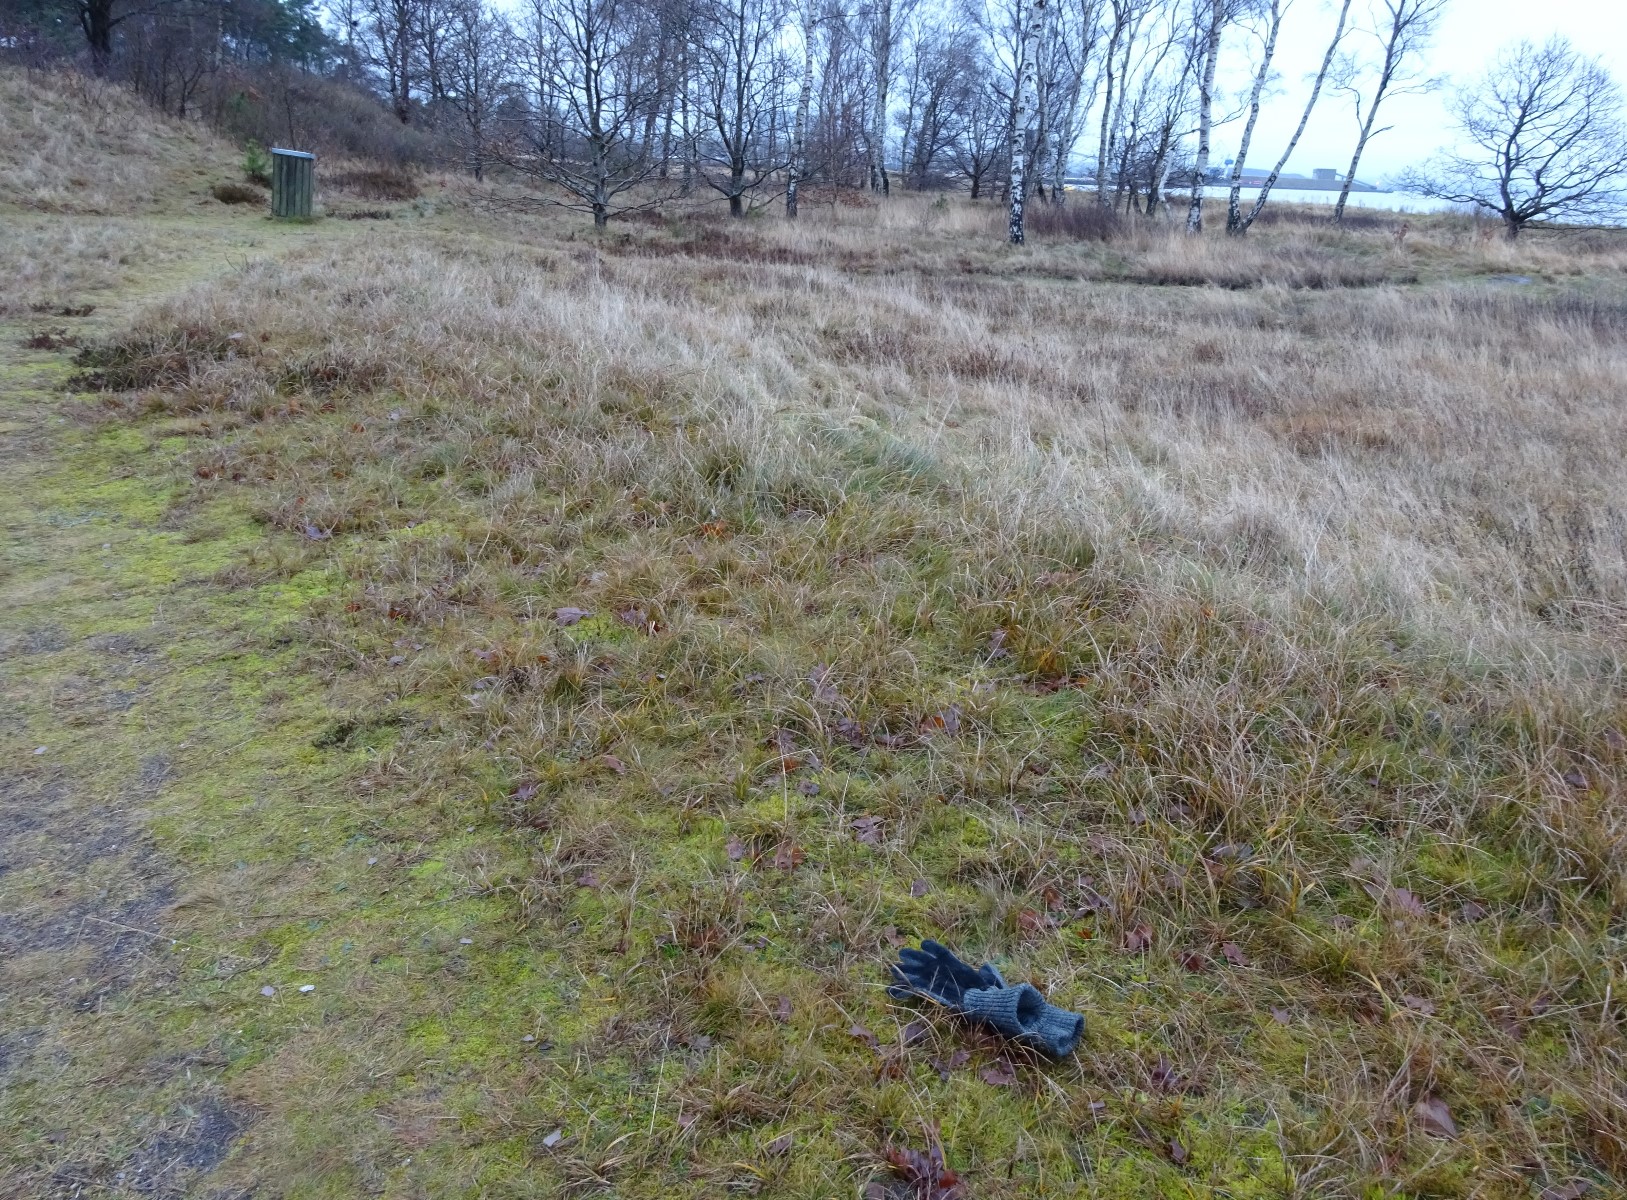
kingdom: Fungi
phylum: Ascomycota
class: Lecanoromycetes
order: Peltigerales
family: Peltigeraceae
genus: Peltigera
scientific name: Peltigera hymenina
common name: hinde-skjoldlav
